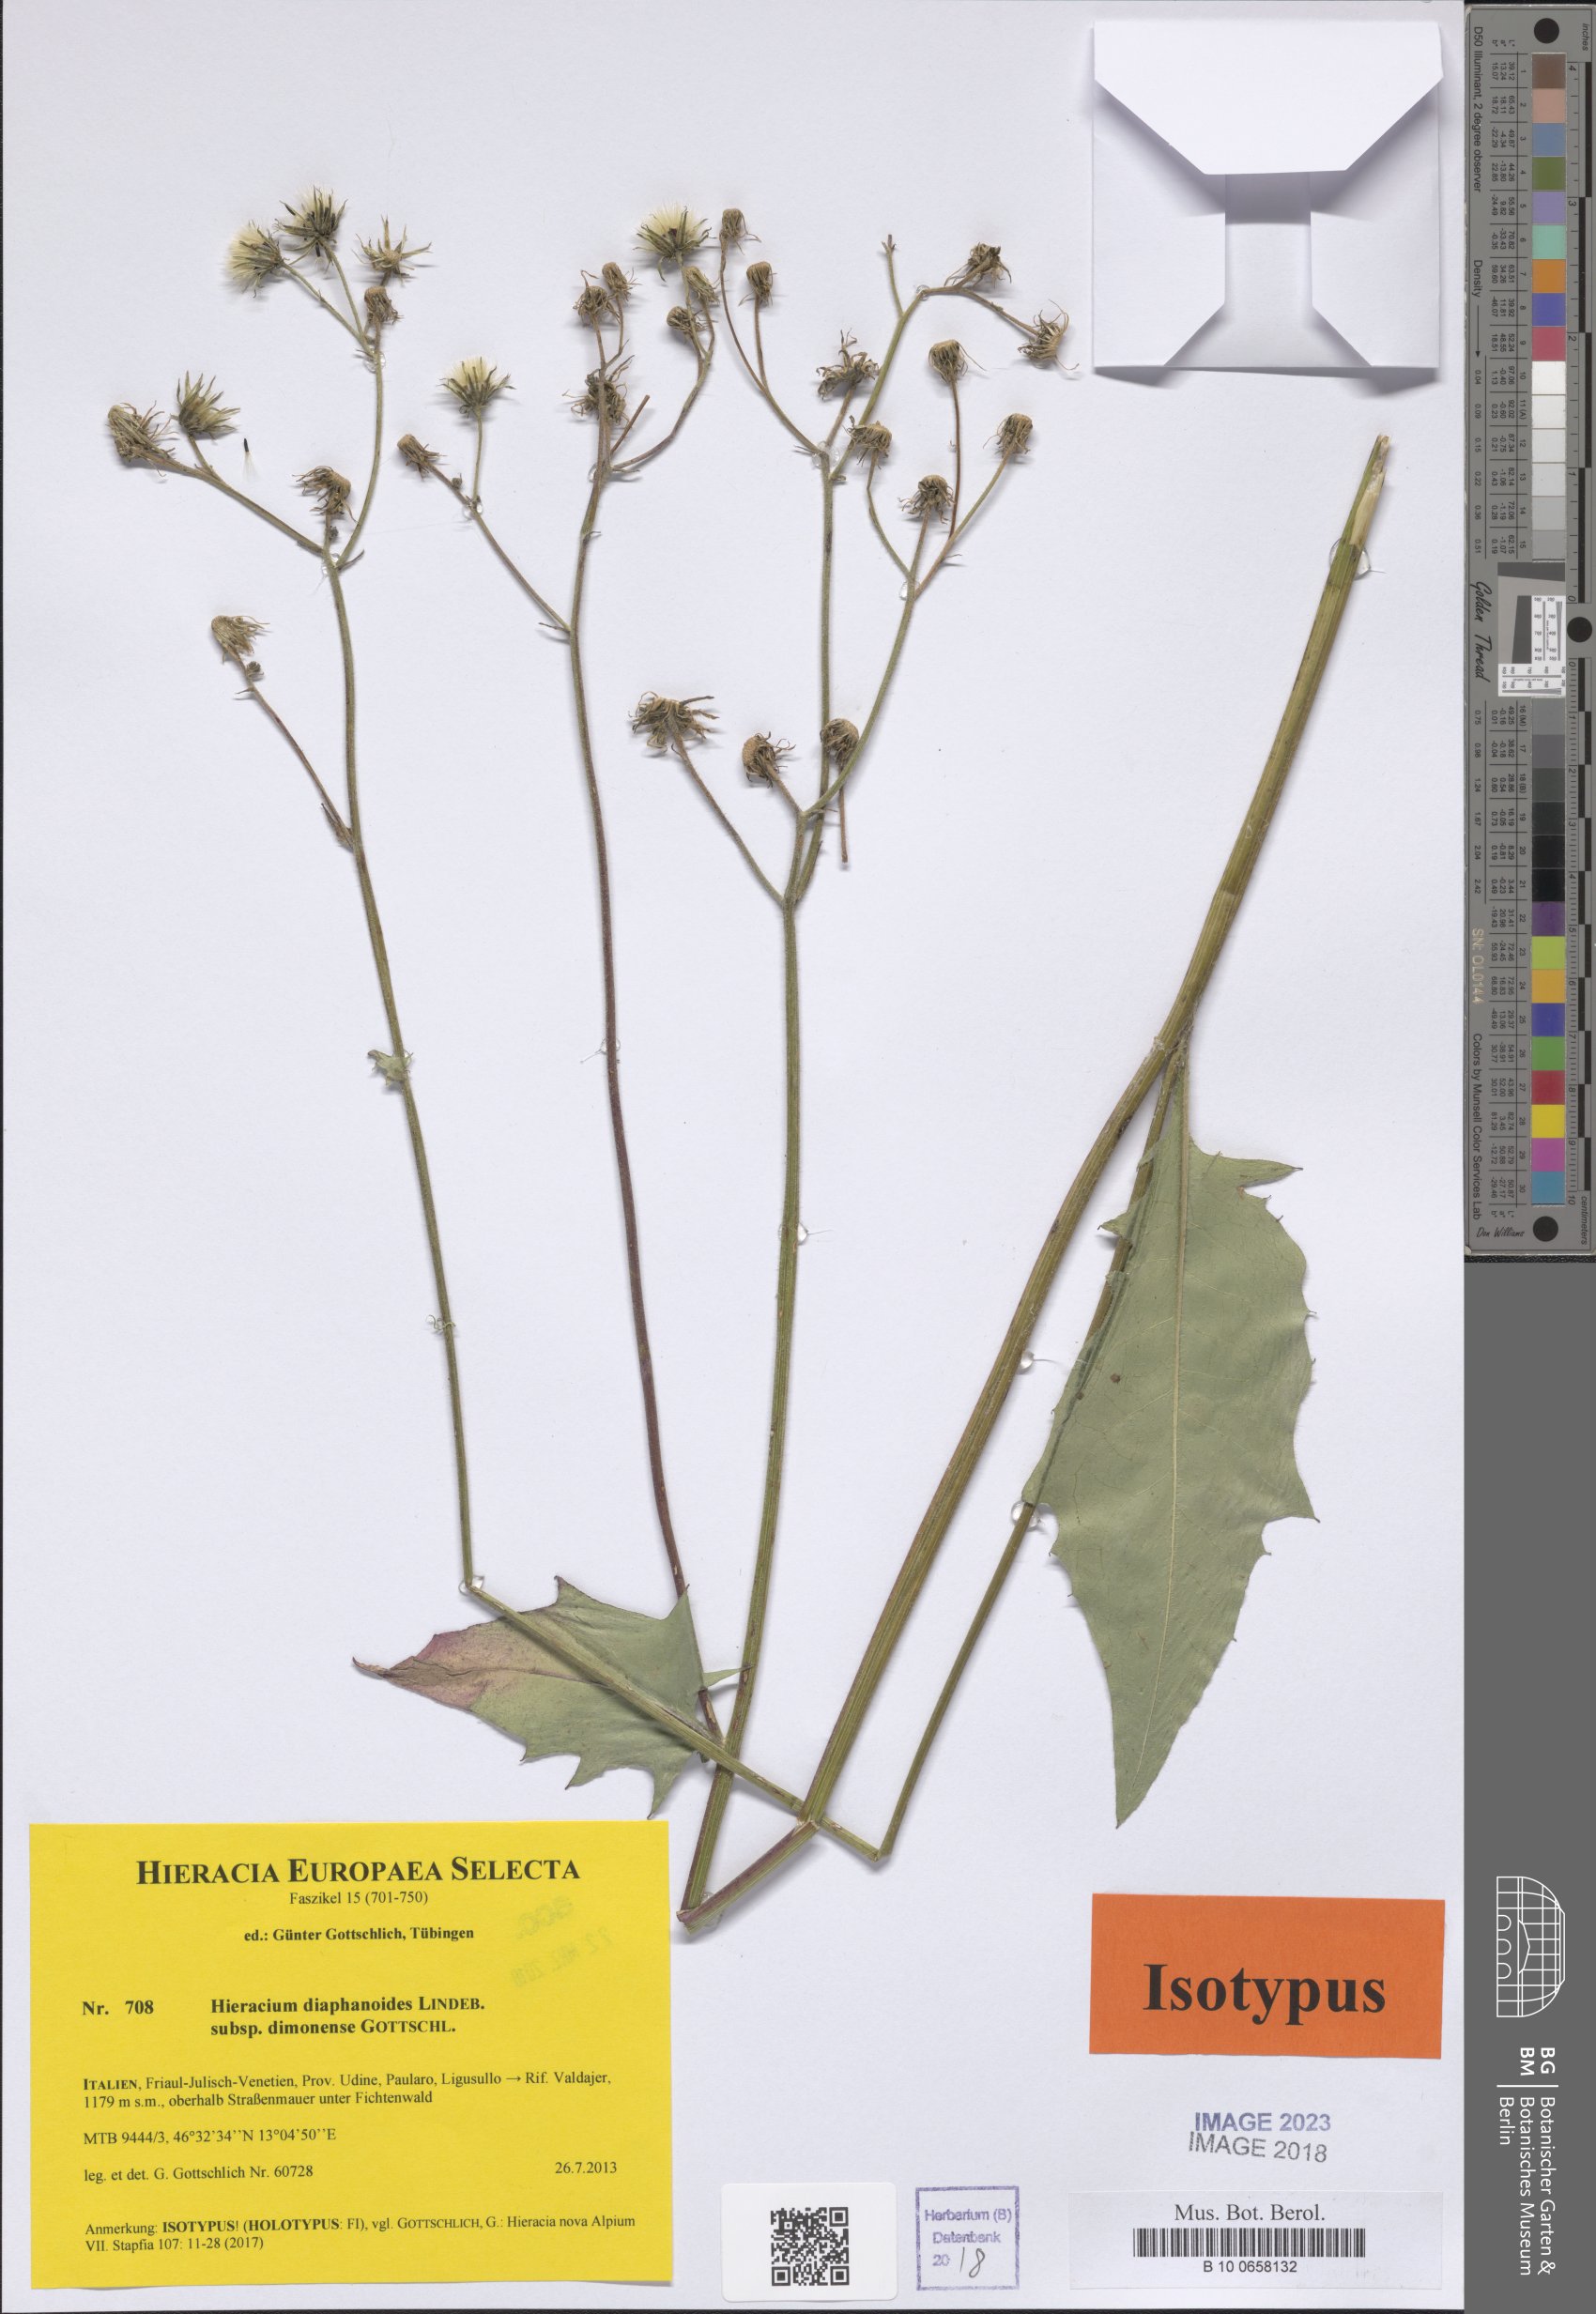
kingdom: Plantae
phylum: Tracheophyta
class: Magnoliopsida
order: Asterales
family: Asteraceae
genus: Hieracium
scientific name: Hieracium diaphanoides
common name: Fine-bracted hawkweed
